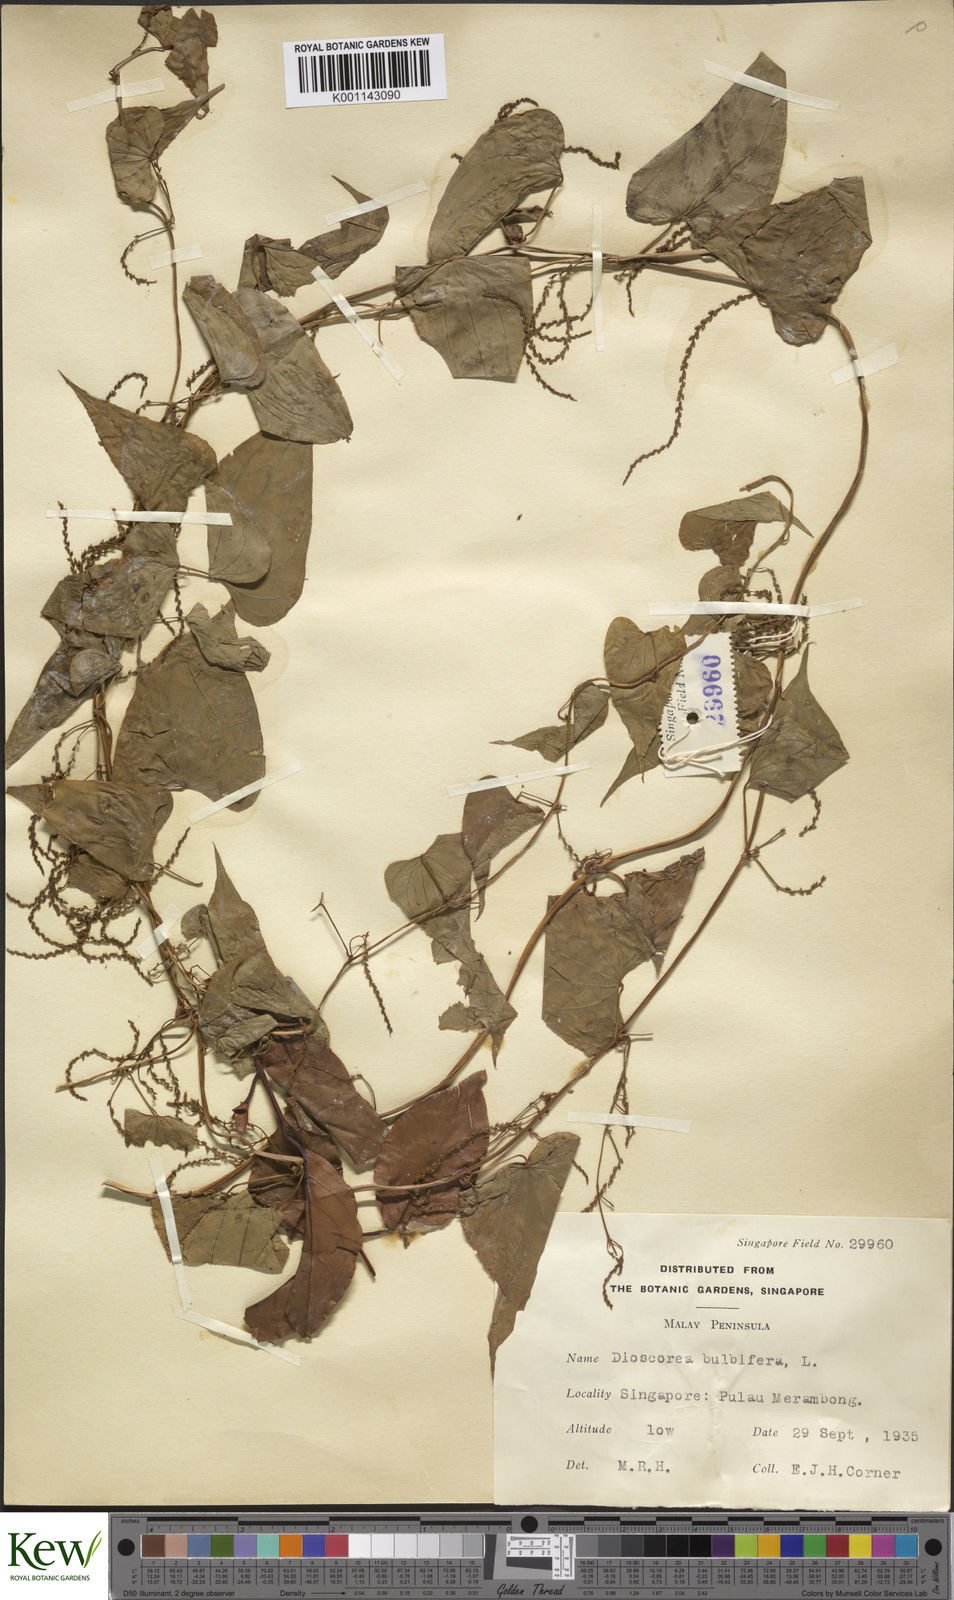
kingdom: Plantae
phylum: Tracheophyta
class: Liliopsida
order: Dioscoreales
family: Dioscoreaceae
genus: Dioscorea
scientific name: Dioscorea bulbifera
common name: Air yam
